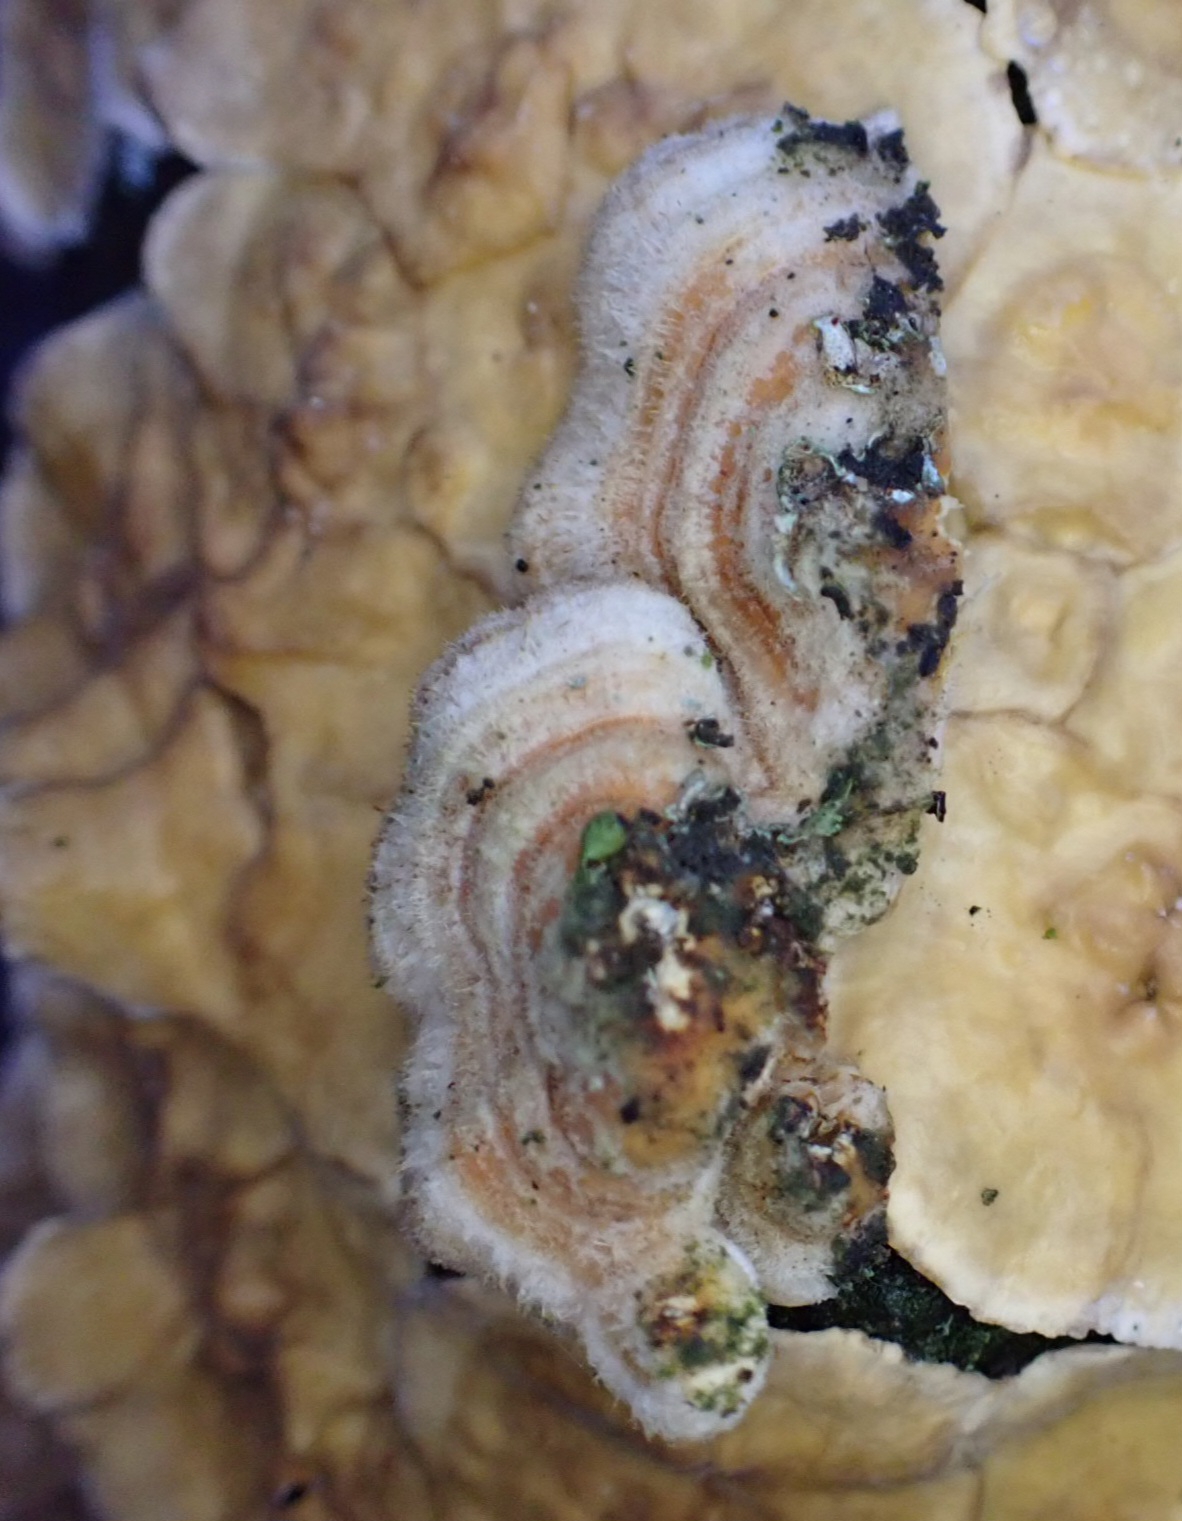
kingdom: Fungi
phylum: Basidiomycota
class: Agaricomycetes
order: Russulales
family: Stereaceae
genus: Stereum
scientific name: Stereum hirsutum
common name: håret lædersvamp
